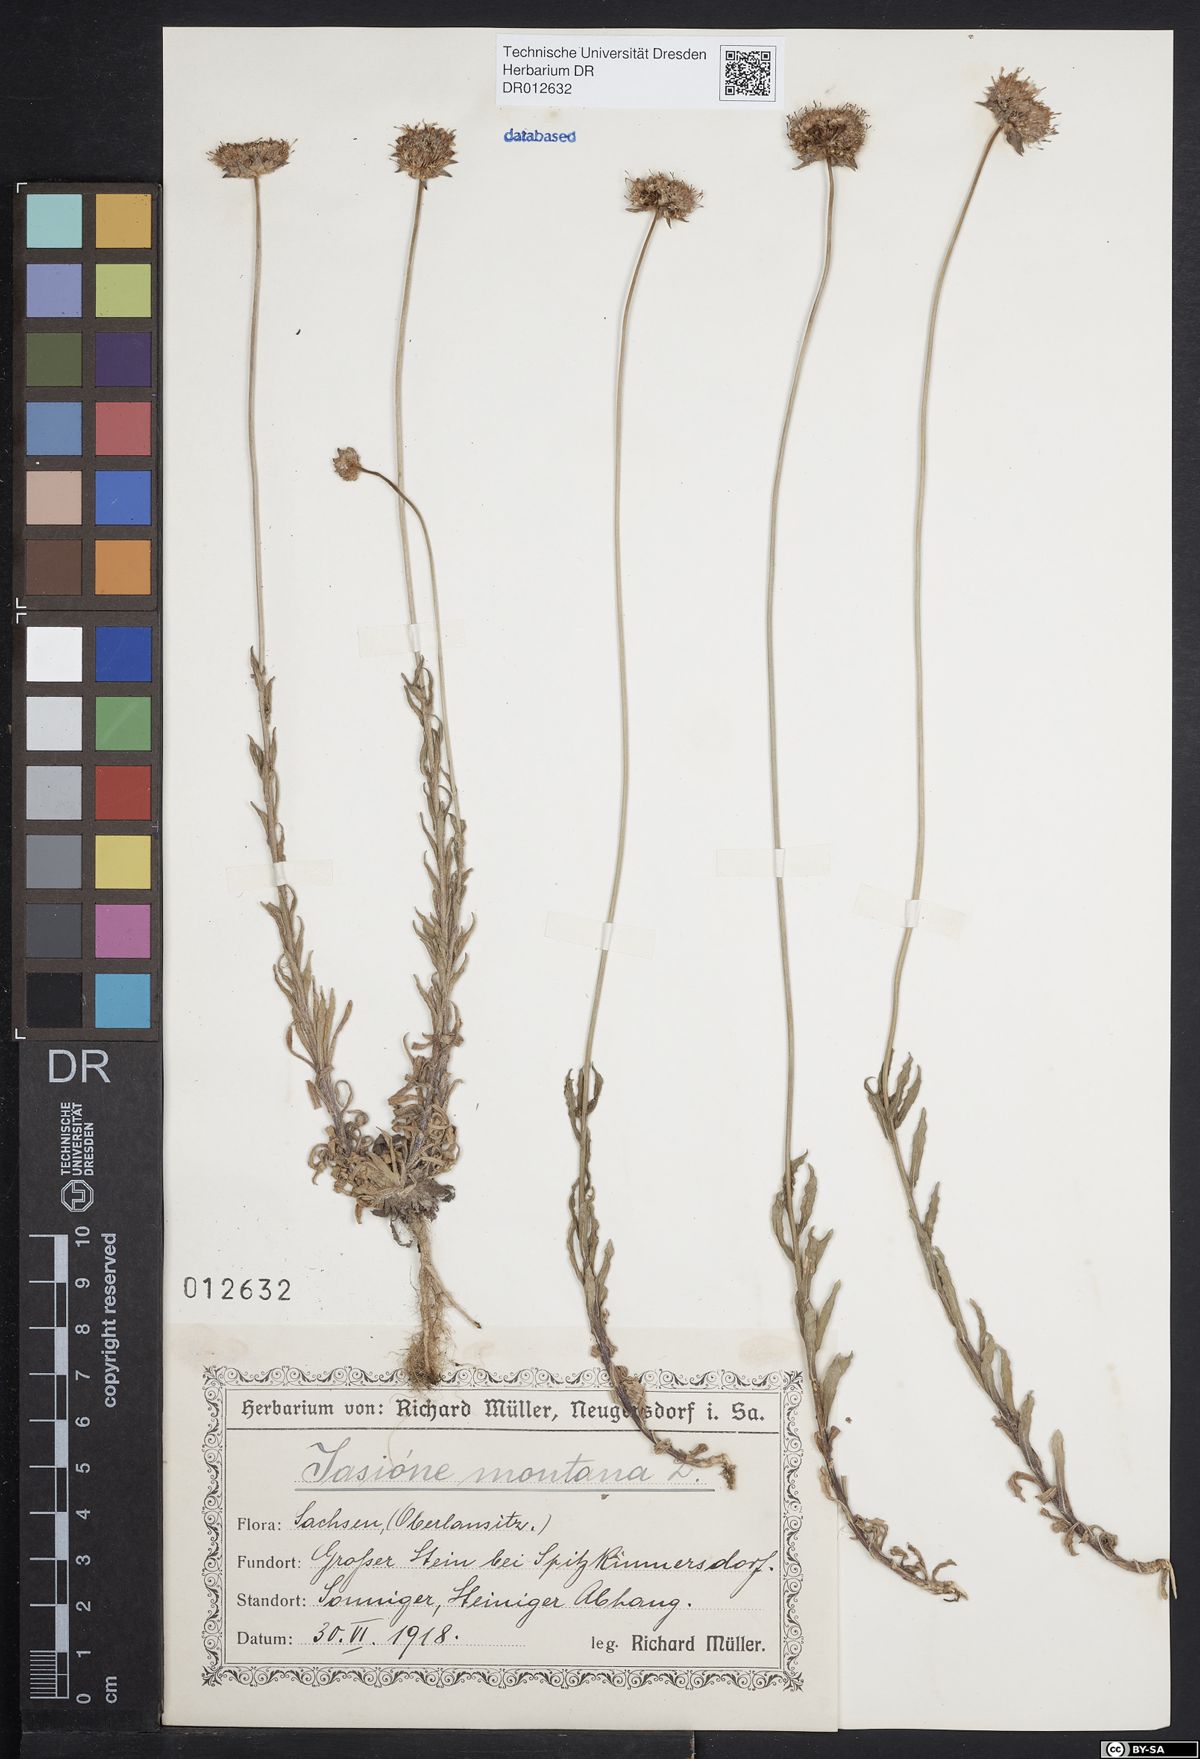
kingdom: Plantae
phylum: Tracheophyta
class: Magnoliopsida
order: Asterales
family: Campanulaceae
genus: Jasione
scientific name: Jasione montana
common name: Sheep's-bit
